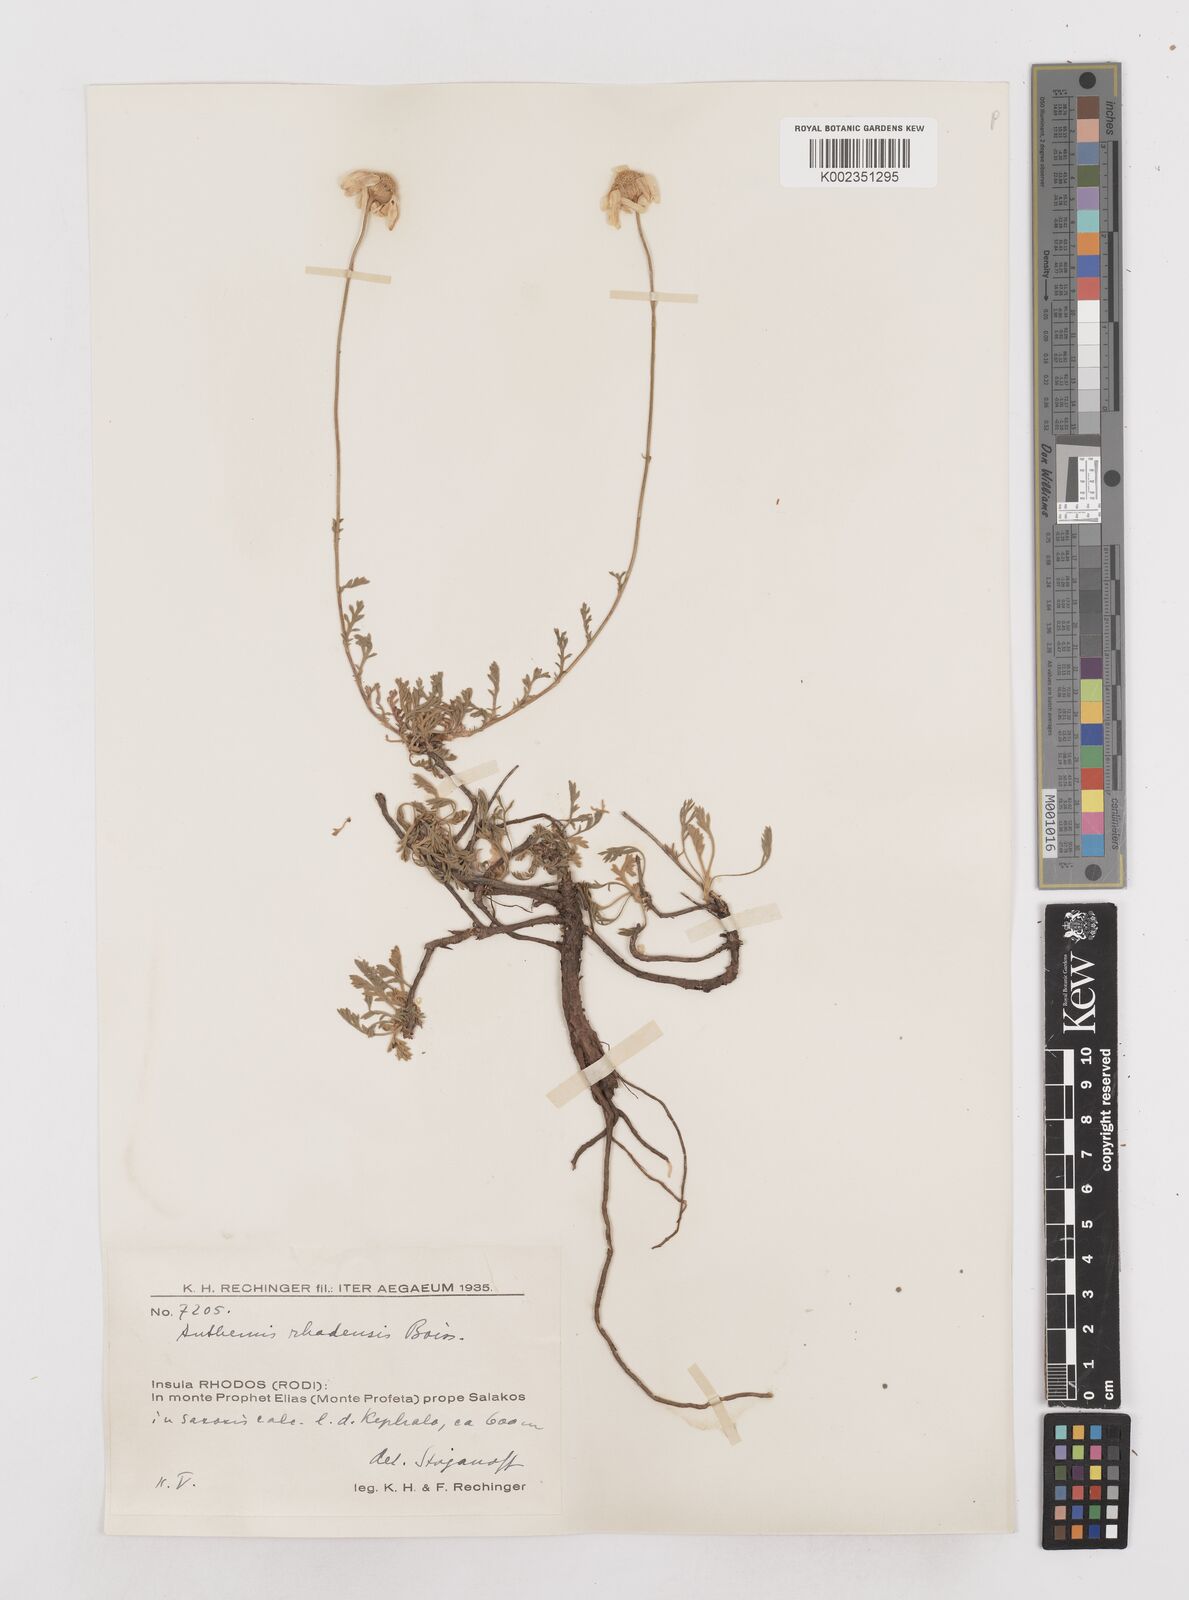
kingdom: Plantae
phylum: Tracheophyta
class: Magnoliopsida
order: Asterales
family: Asteraceae
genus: Anthemis
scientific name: Anthemis rhodensis
